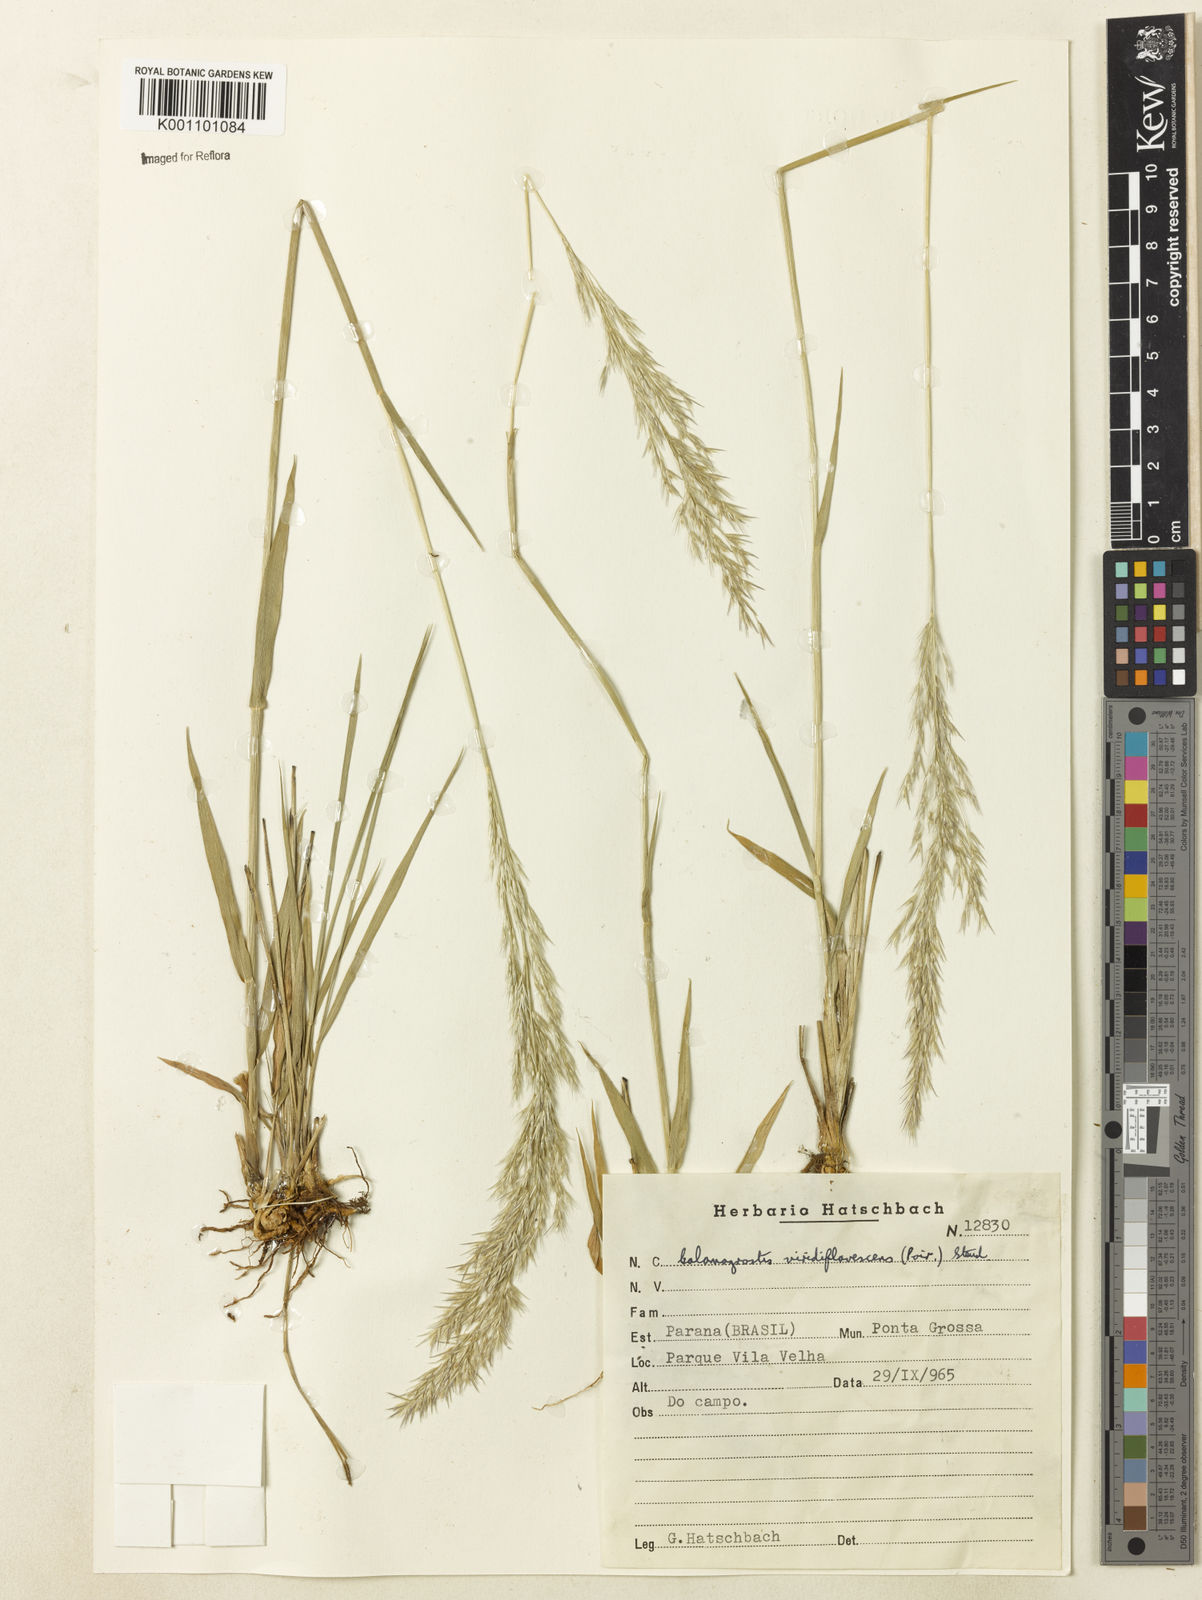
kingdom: Plantae
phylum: Tracheophyta
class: Liliopsida
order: Poales
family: Poaceae
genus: Cinnagrostis
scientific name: Cinnagrostis viridiflavescens
